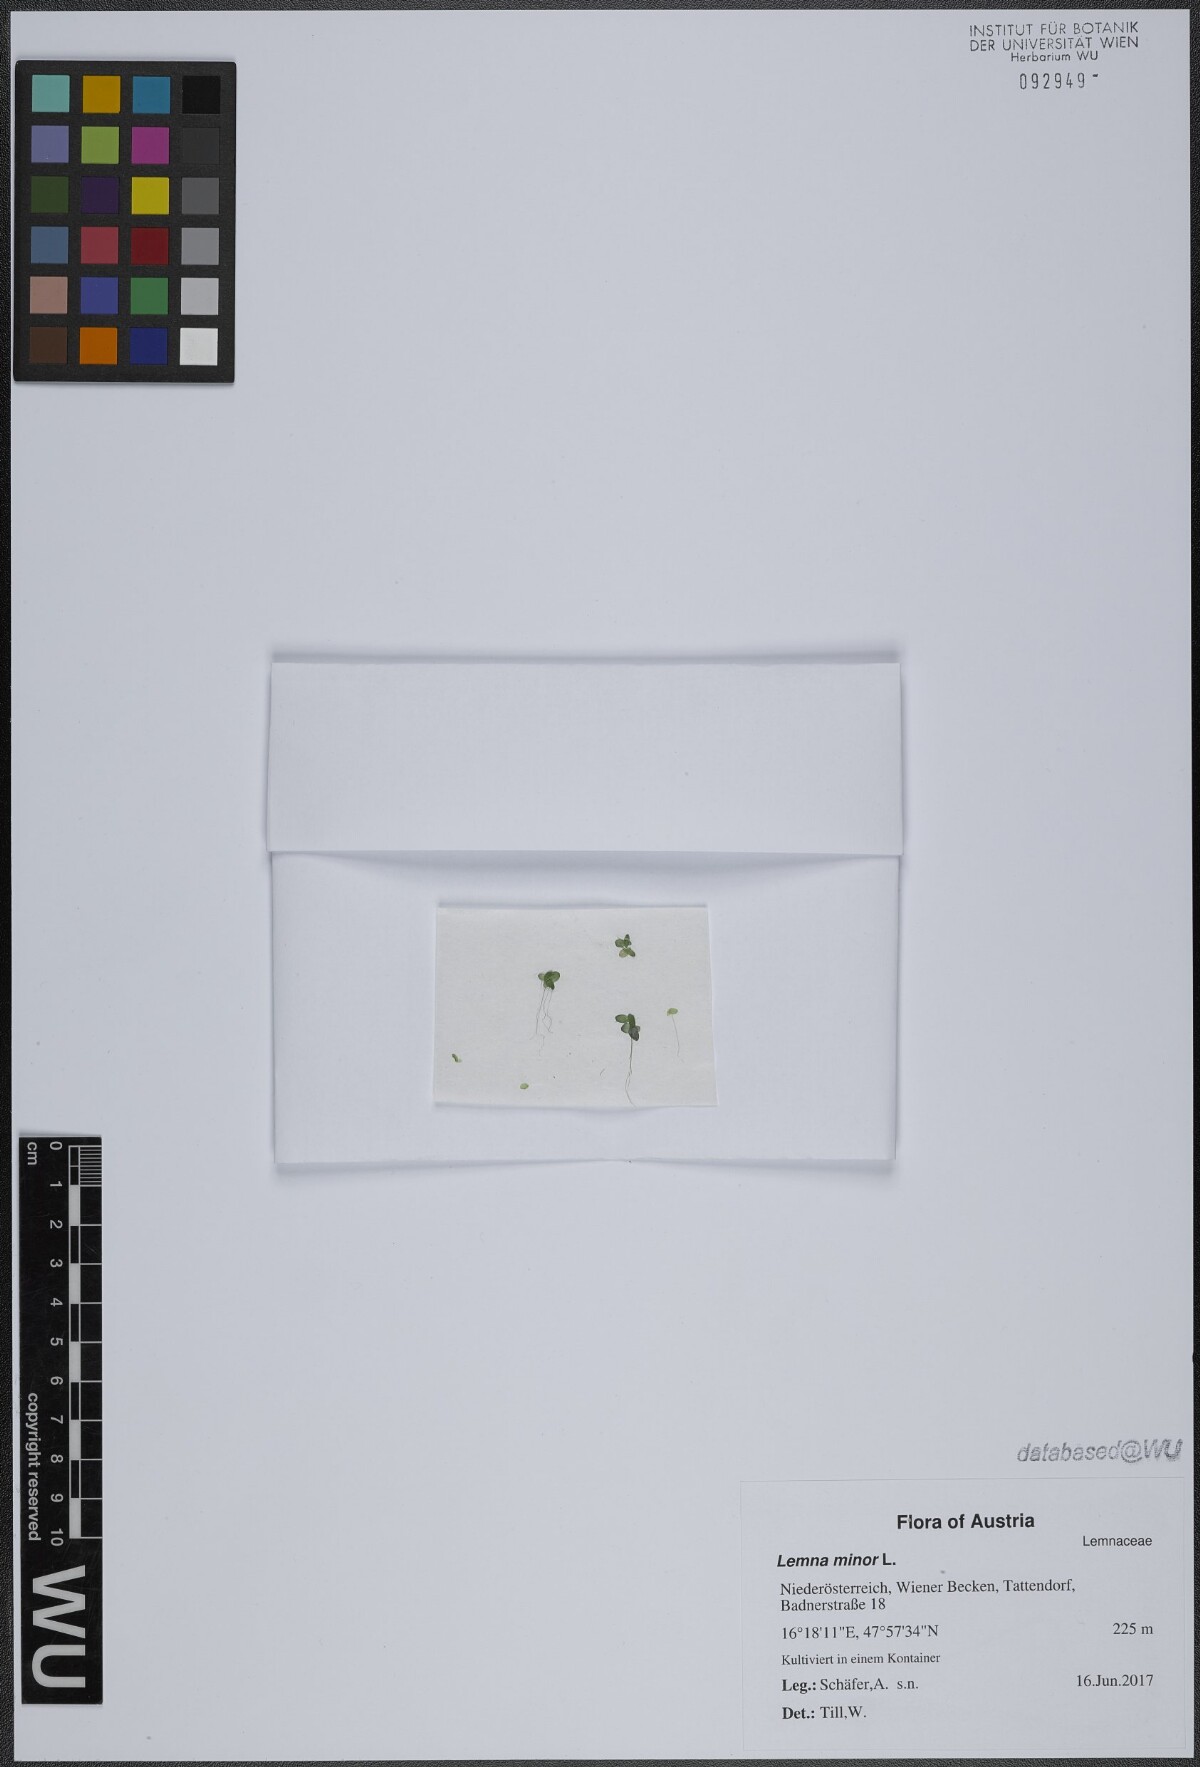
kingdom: Plantae
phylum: Tracheophyta
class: Liliopsida
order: Alismatales
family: Araceae
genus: Lemna
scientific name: Lemna minor
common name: Common duckweed
